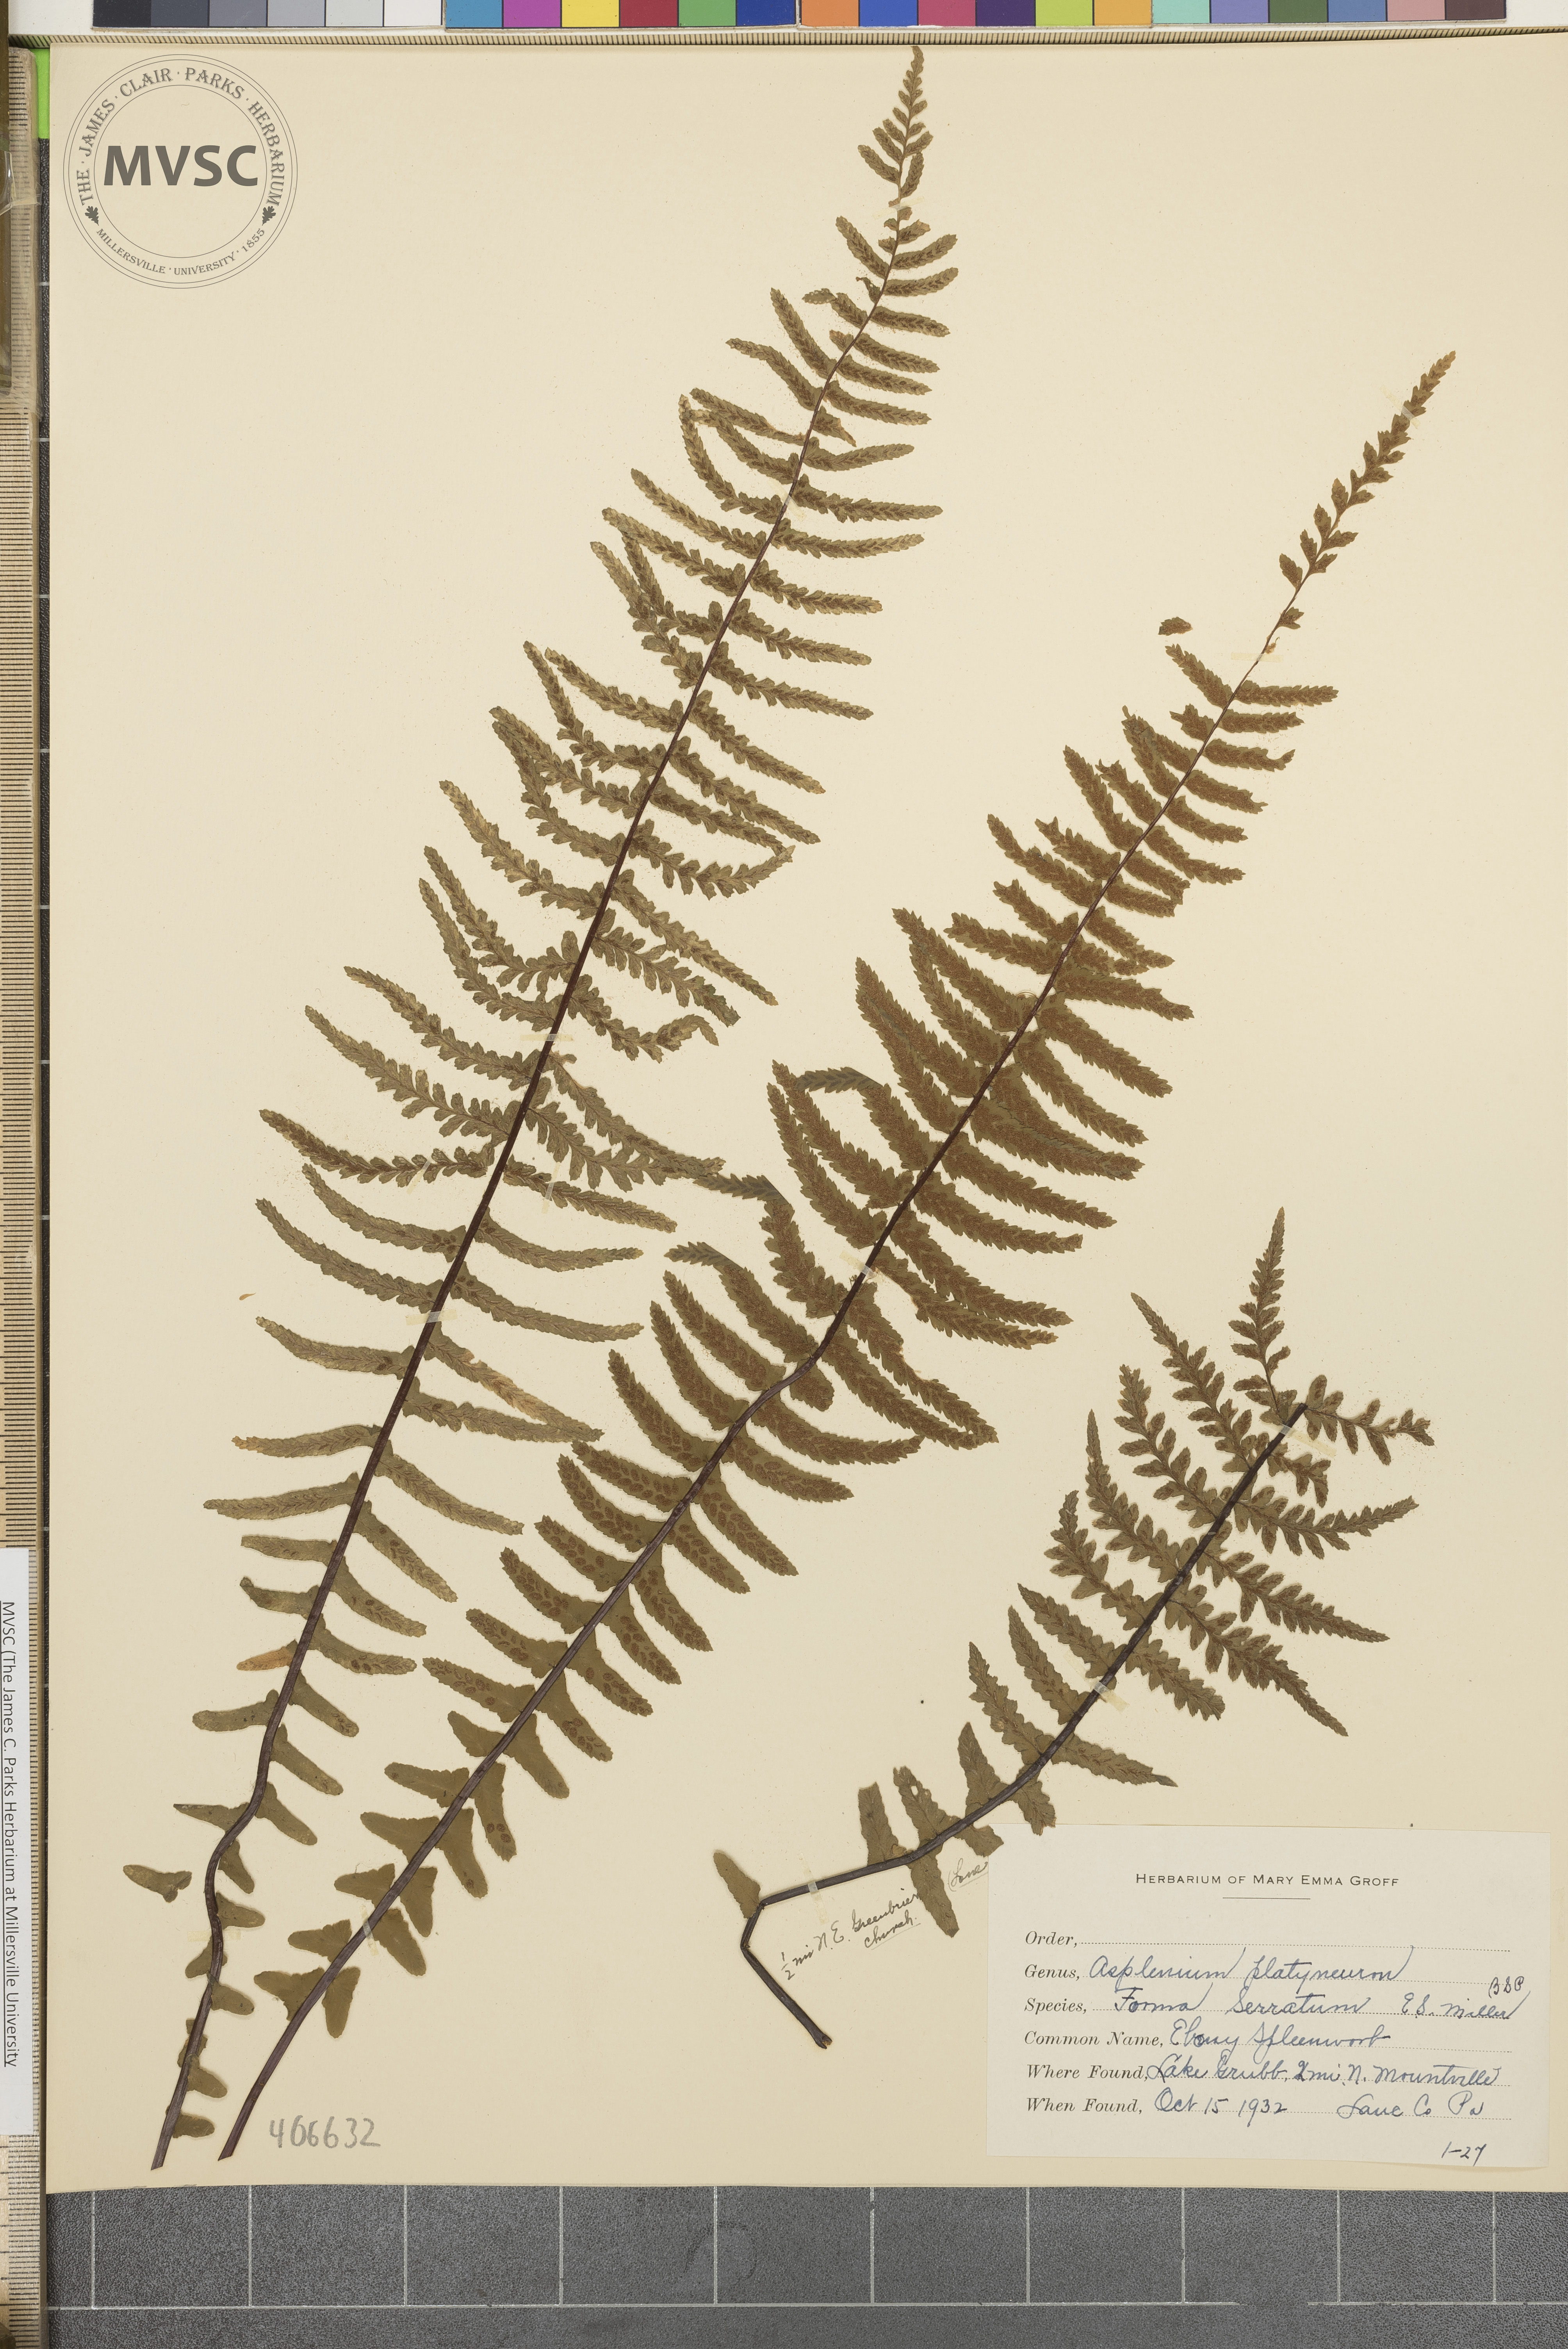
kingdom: Plantae
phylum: Tracheophyta
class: Polypodiopsida
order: Polypodiales
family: Aspleniaceae
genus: Asplenium
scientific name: Asplenium platyneuron
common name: Ebony spleenwort
